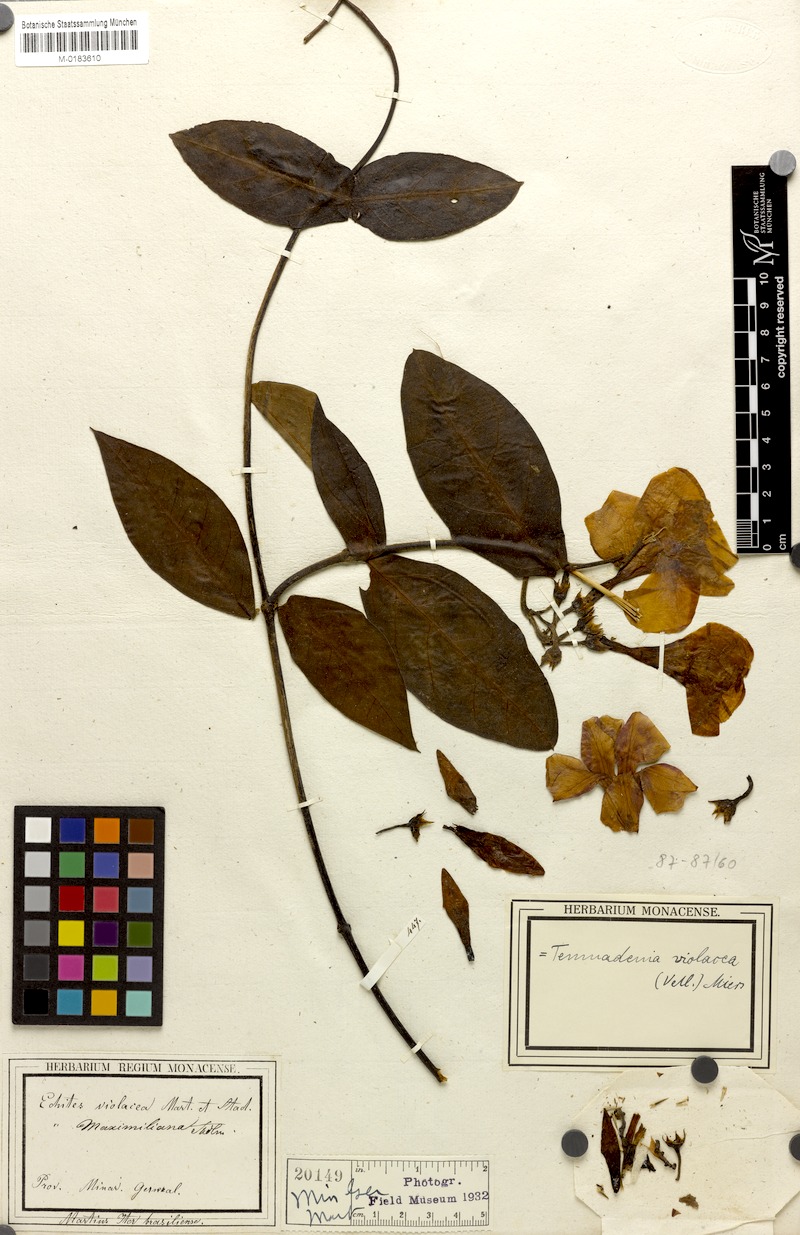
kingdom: Plantae
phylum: Tracheophyta
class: Magnoliopsida
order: Gentianales
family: Apocynaceae
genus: Temnadenia
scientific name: Temnadenia violacea
